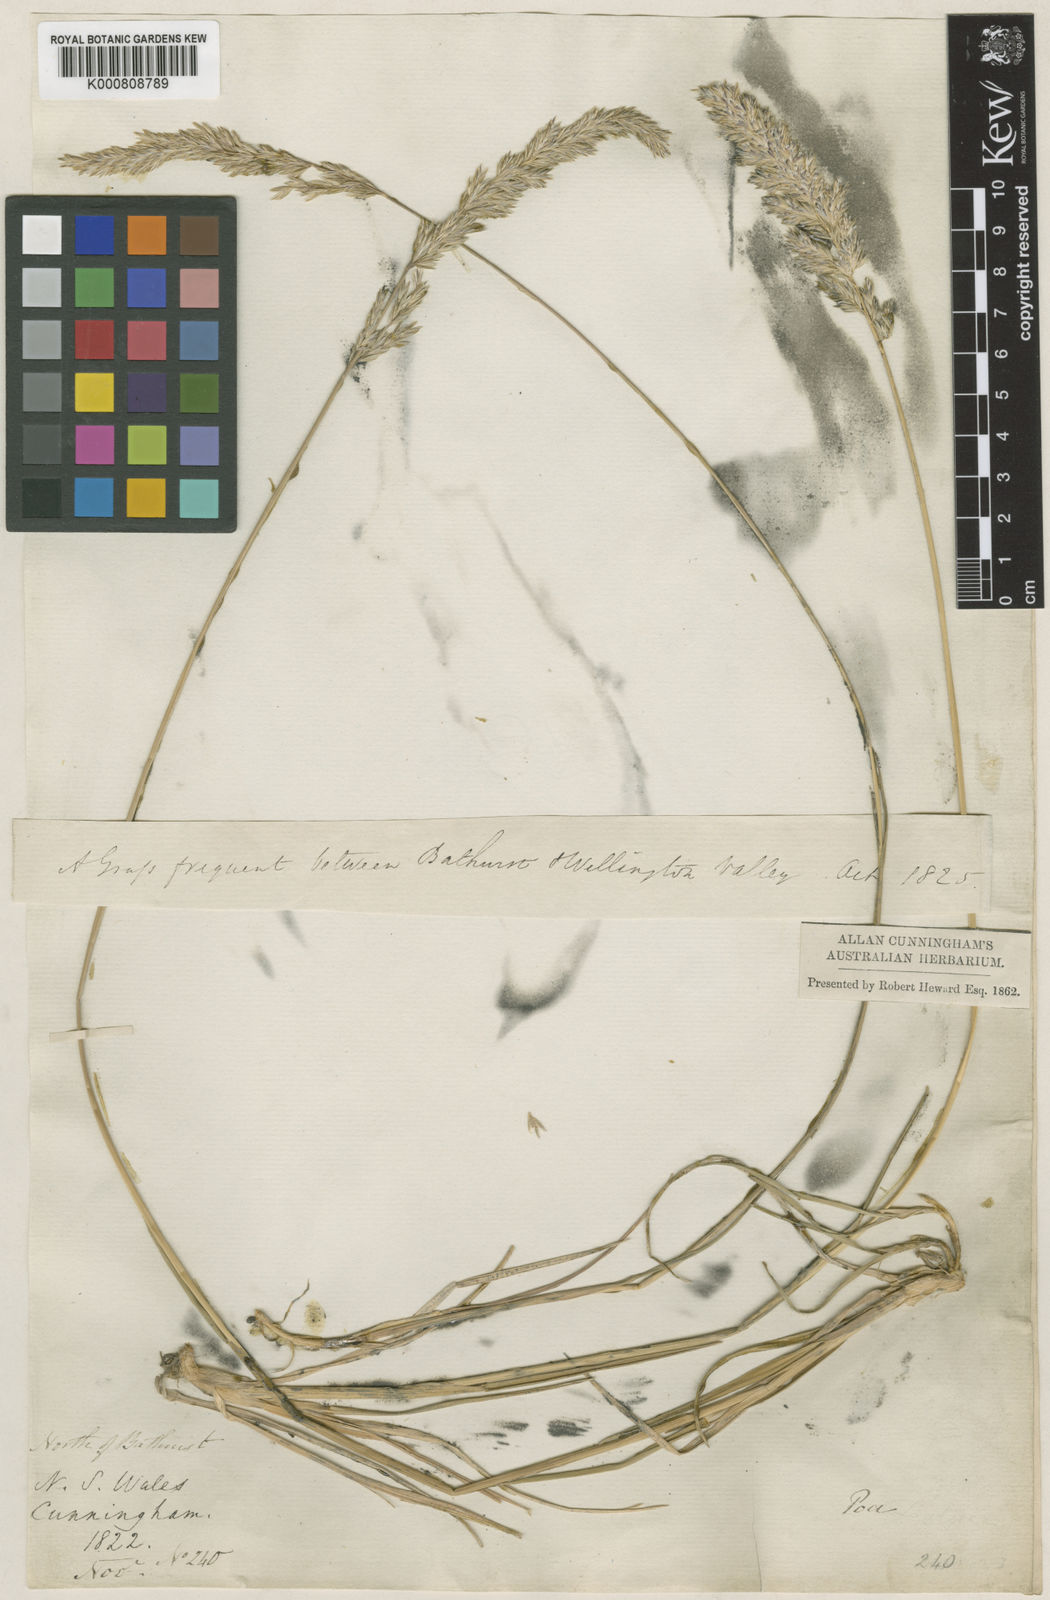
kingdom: Plantae
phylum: Tracheophyta
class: Liliopsida
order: Poales
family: Poaceae
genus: Koeleria
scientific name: Koeleria macrantha
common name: Crested hair-grass
